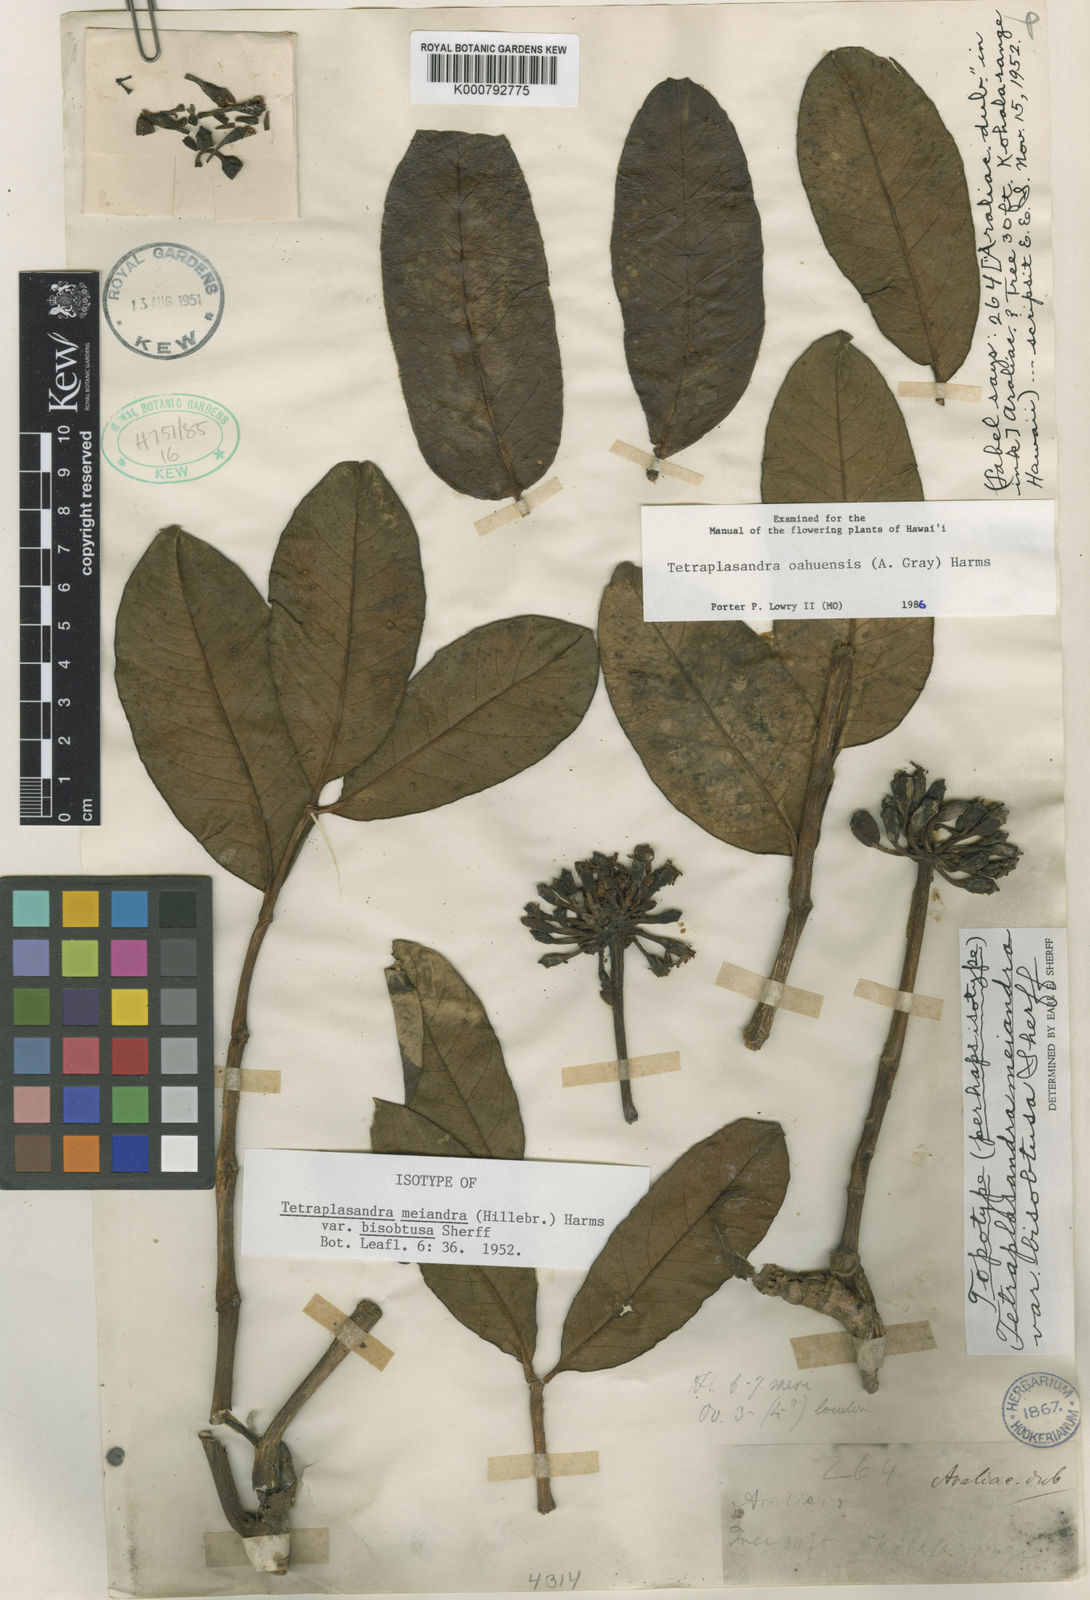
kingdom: Plantae
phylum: Tracheophyta
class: Magnoliopsida
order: Apiales
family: Araliaceae
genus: Polyscias
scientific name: Polyscias oahuensis
